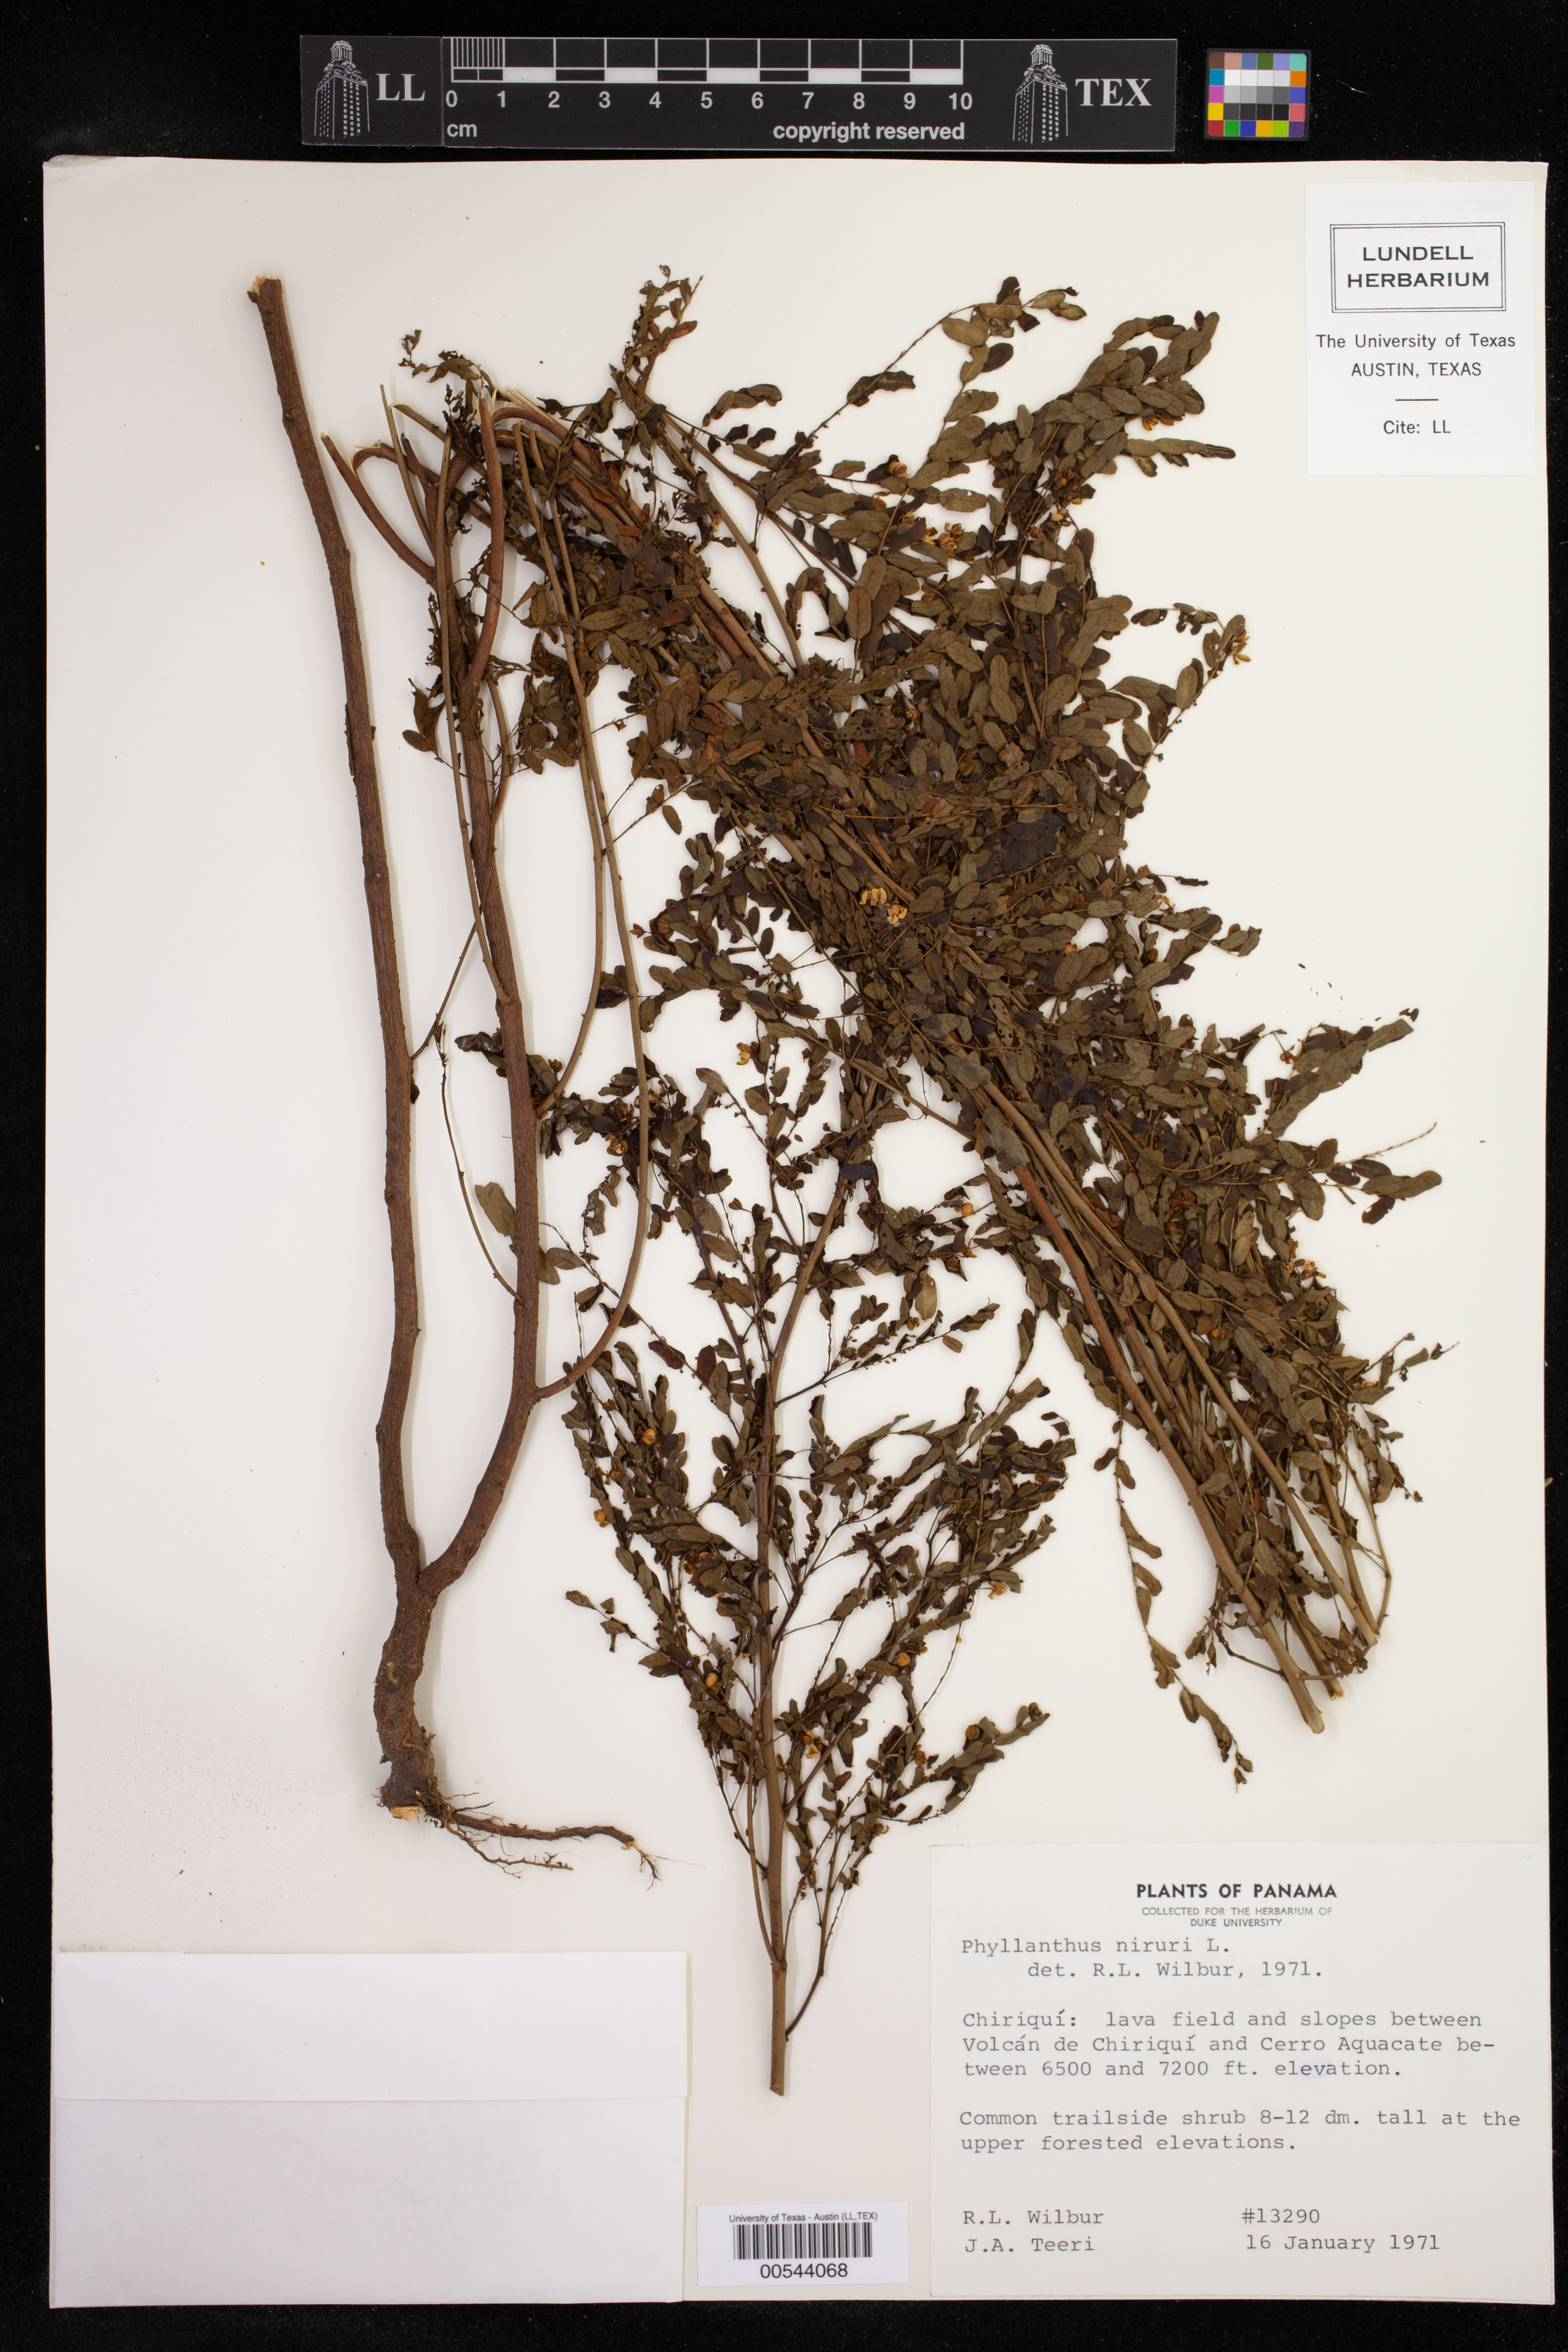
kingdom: Plantae
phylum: Tracheophyta
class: Magnoliopsida
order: Malpighiales
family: Phyllanthaceae
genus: Phyllanthus
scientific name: Phyllanthus niruri
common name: Niruri
